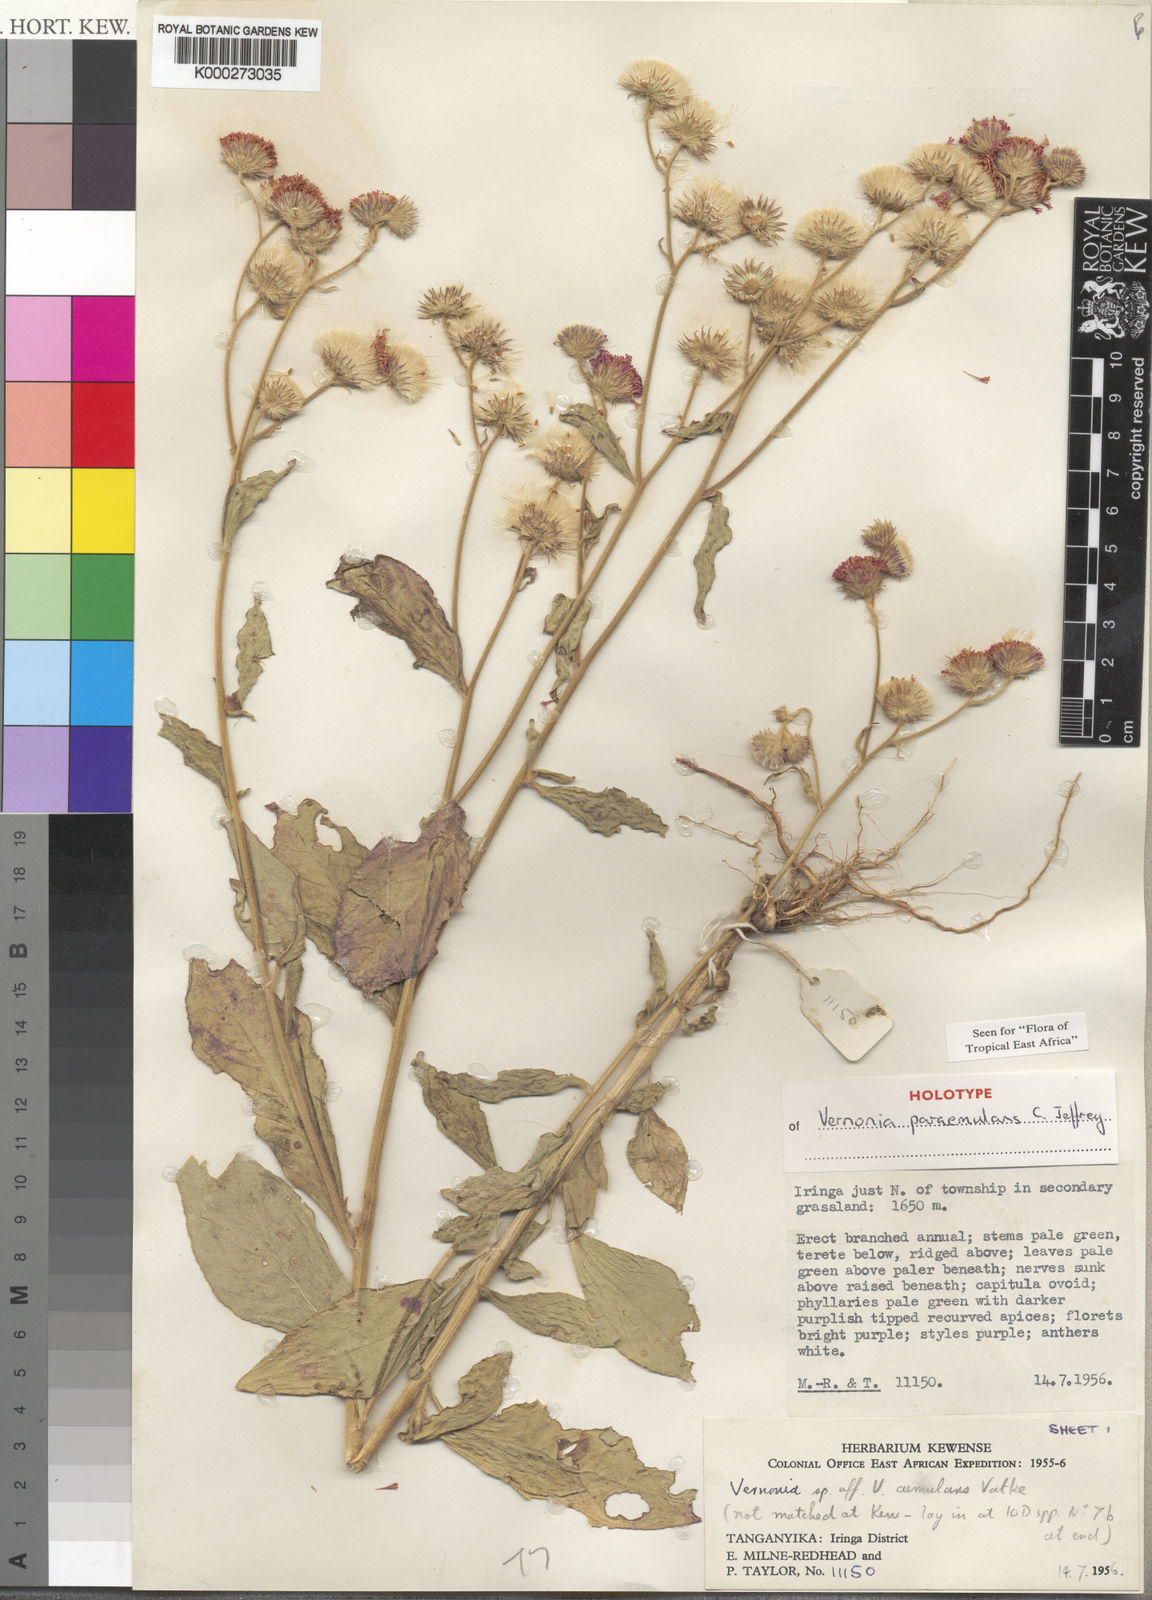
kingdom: Plantae
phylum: Tracheophyta
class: Magnoliopsida
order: Asterales
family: Asteraceae
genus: Vernoniastrum
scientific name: Vernoniastrum paraemulans
